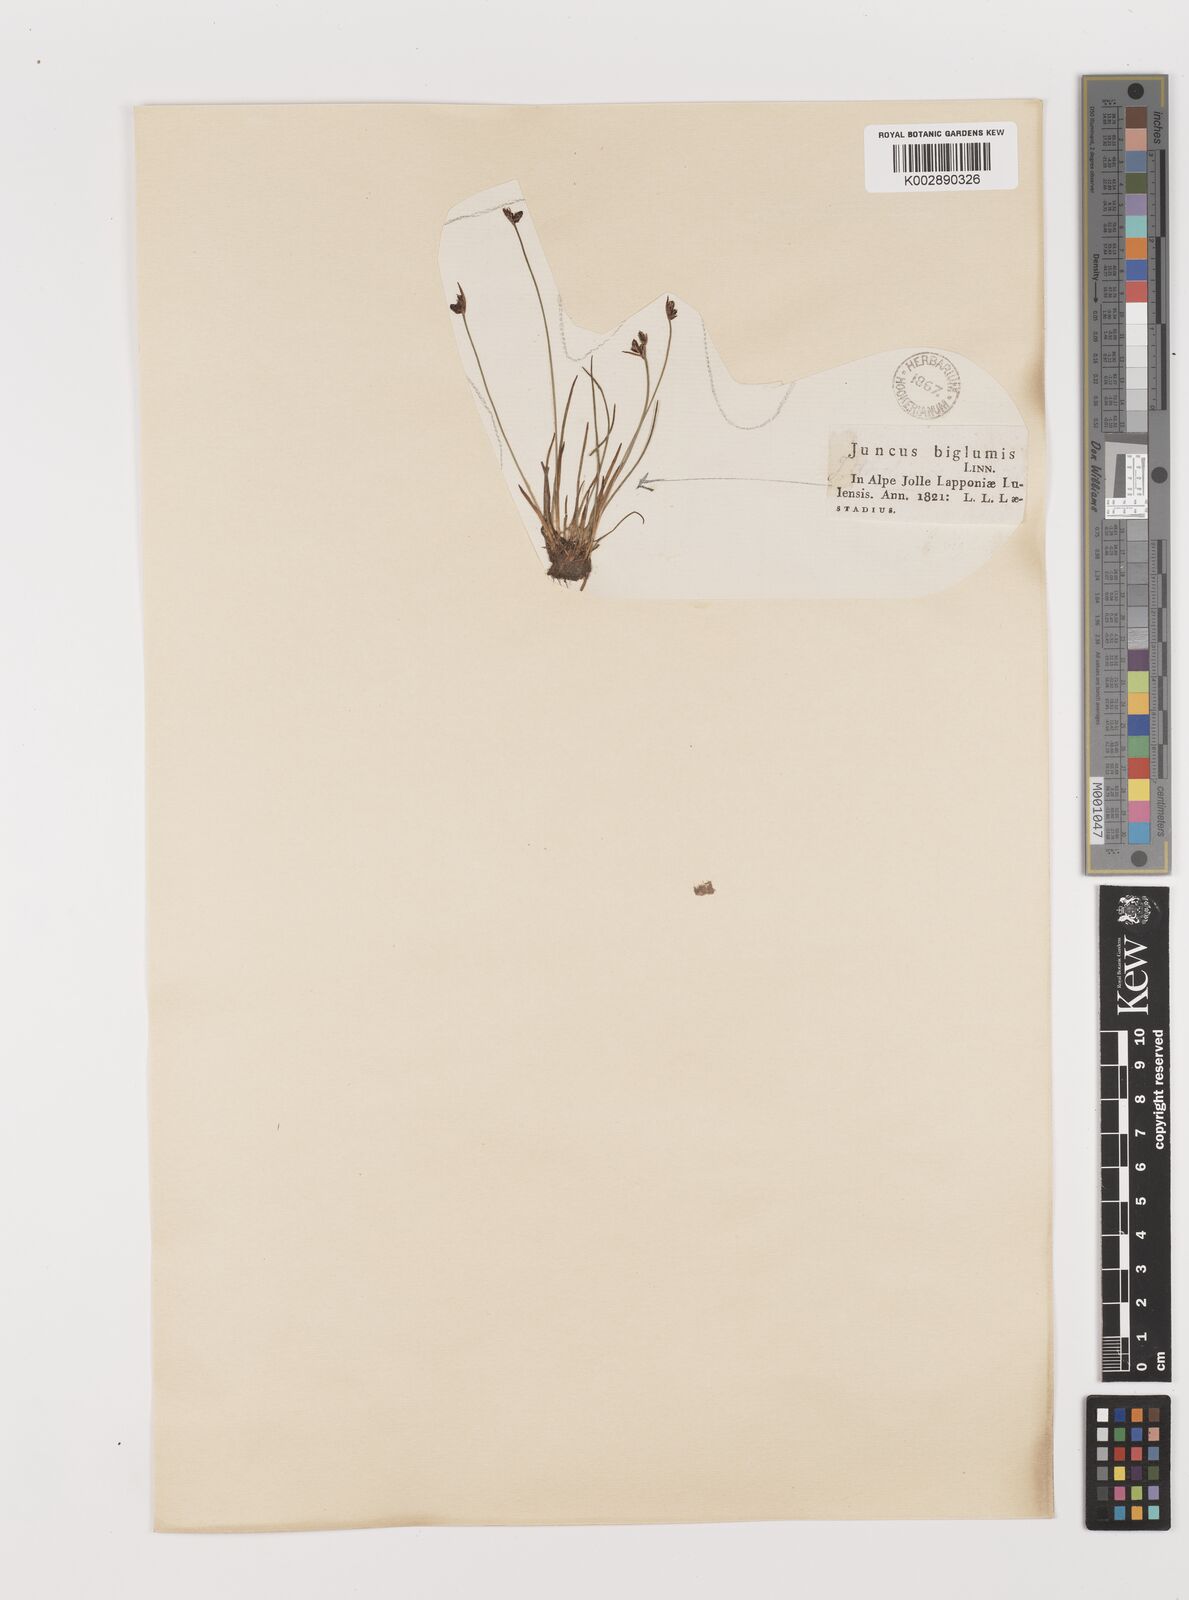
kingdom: Plantae
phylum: Tracheophyta
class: Liliopsida
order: Poales
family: Juncaceae
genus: Juncus
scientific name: Juncus biglumis
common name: Two-flowered rush
